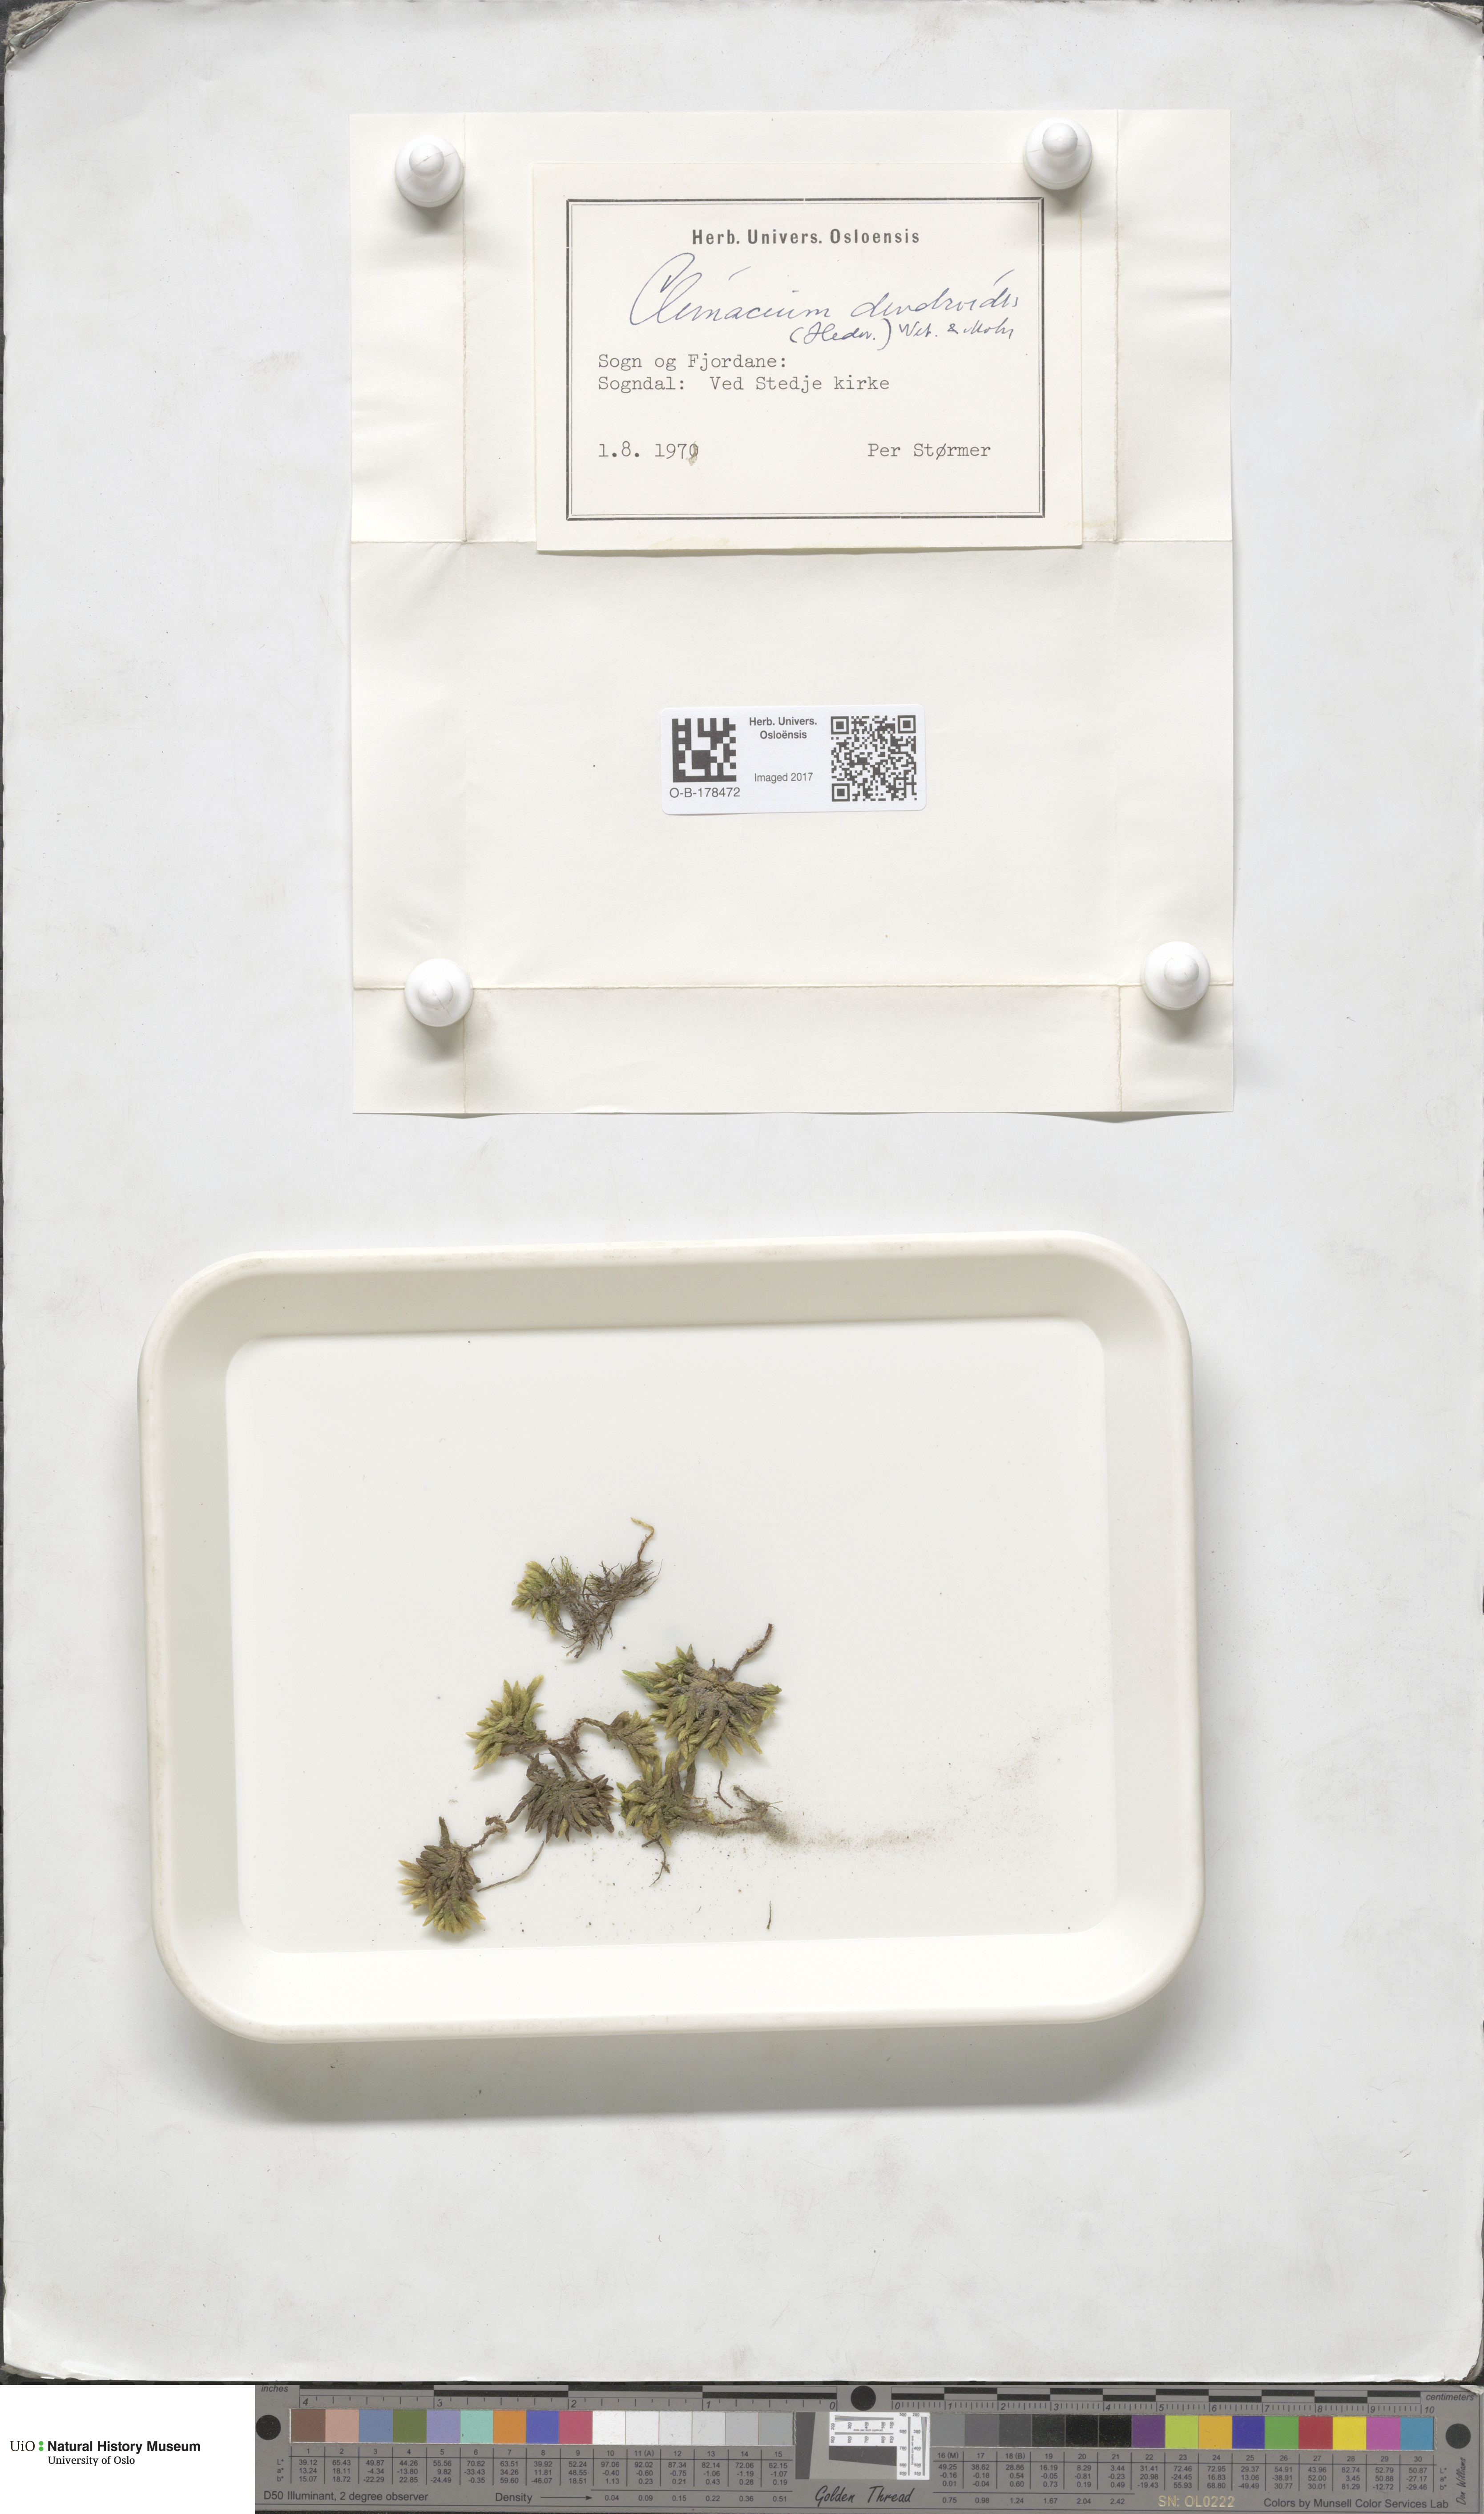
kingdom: Plantae
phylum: Bryophyta
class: Bryopsida
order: Hypnales
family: Climaciaceae
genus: Climacium
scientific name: Climacium dendroides
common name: Northern tree moss
